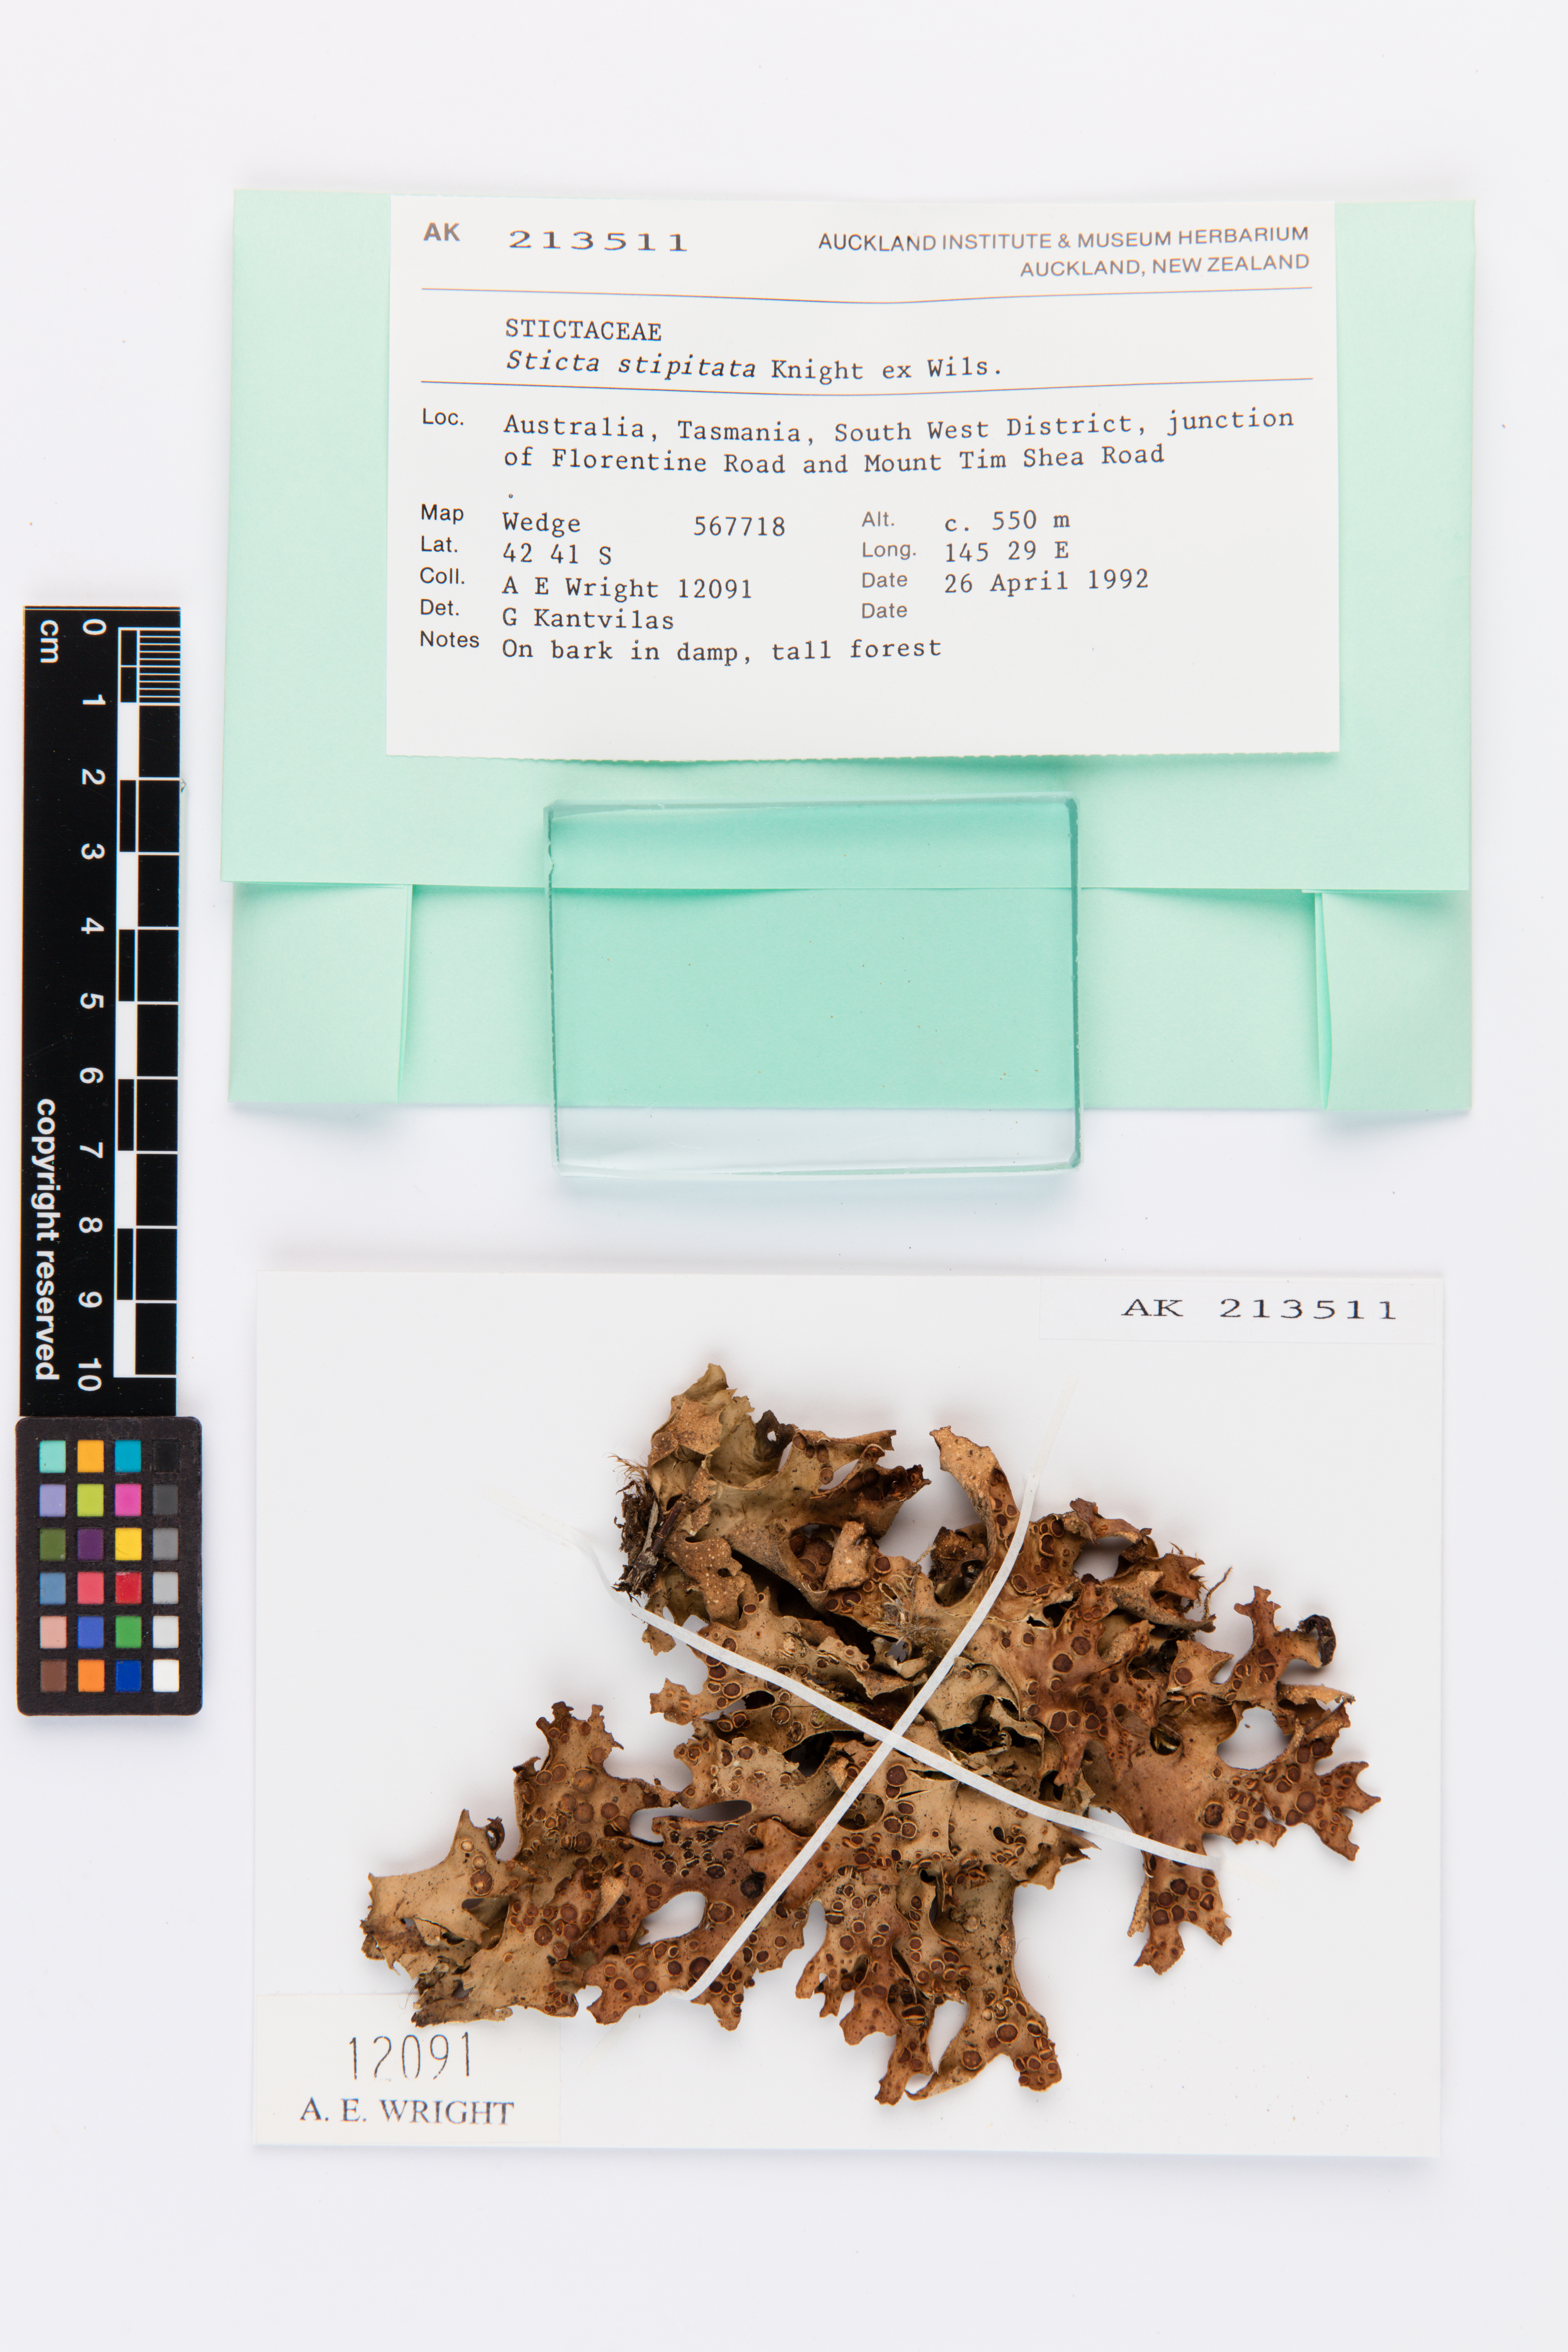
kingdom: Fungi
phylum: Ascomycota
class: Lecanoromycetes
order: Peltigerales
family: Lobariaceae
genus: Sticta
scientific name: Sticta stipitata
